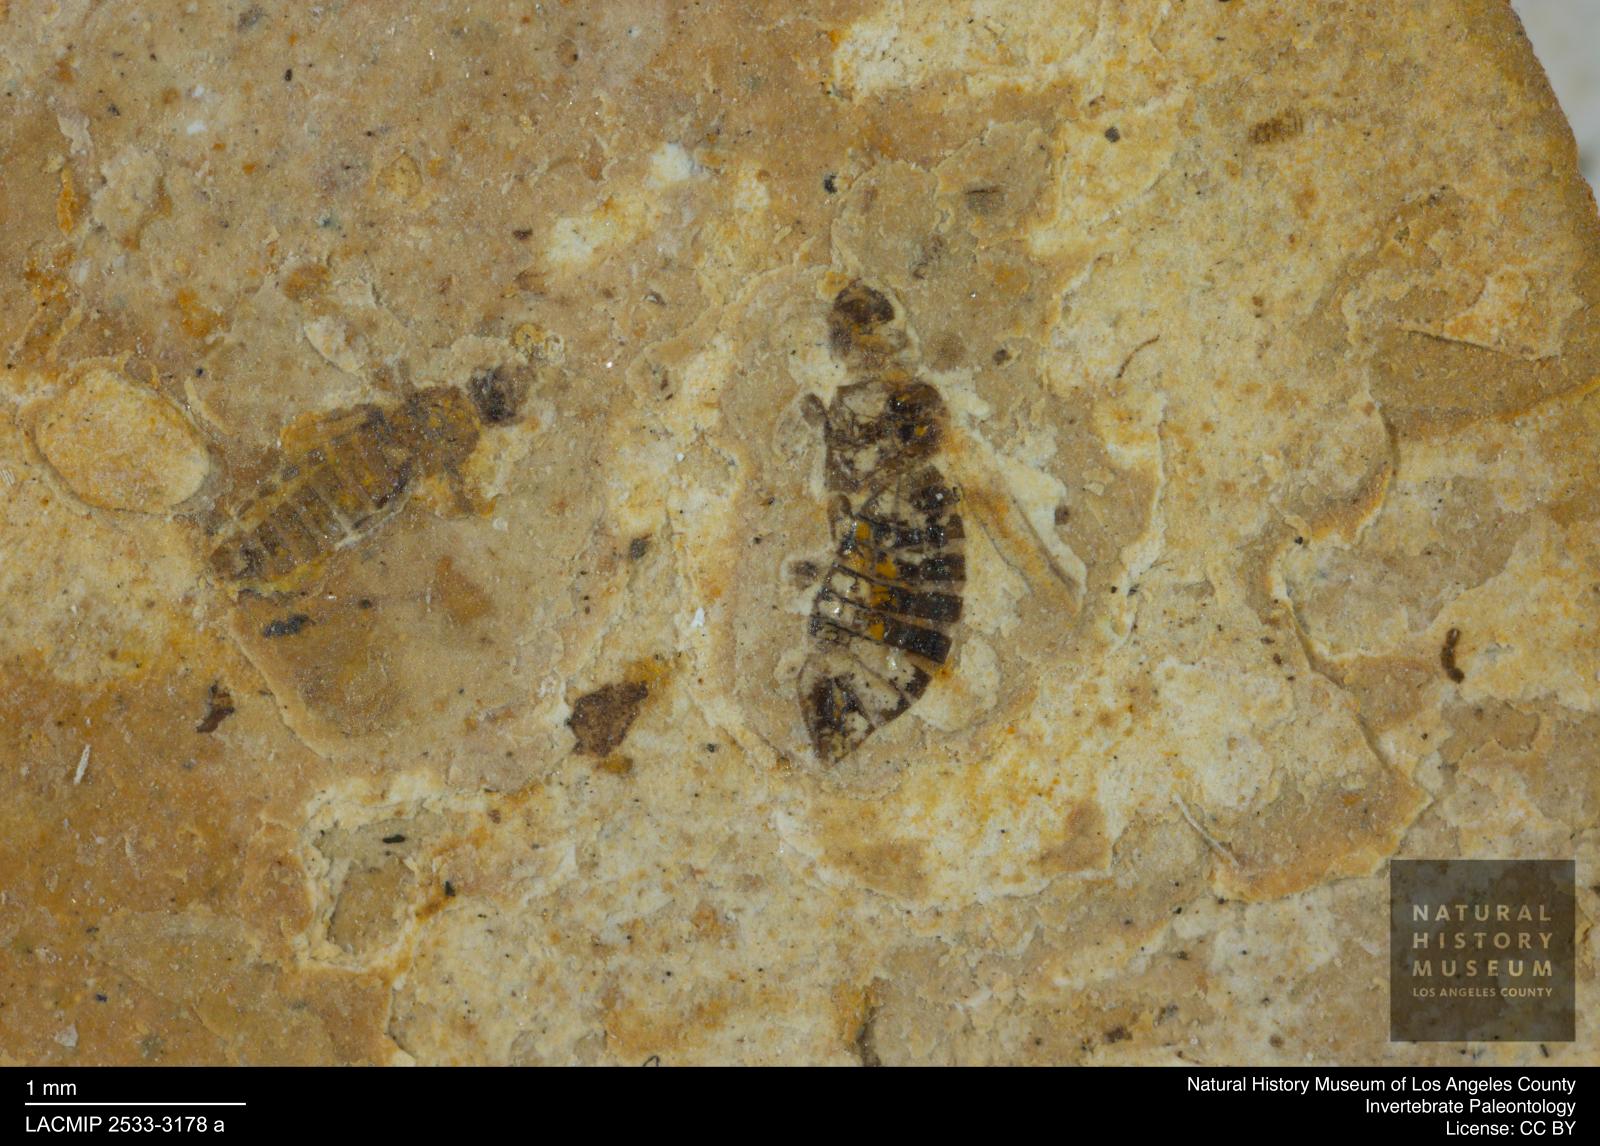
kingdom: Animalia
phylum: Arthropoda
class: Insecta
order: Thysanoptera
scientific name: Thysanoptera
